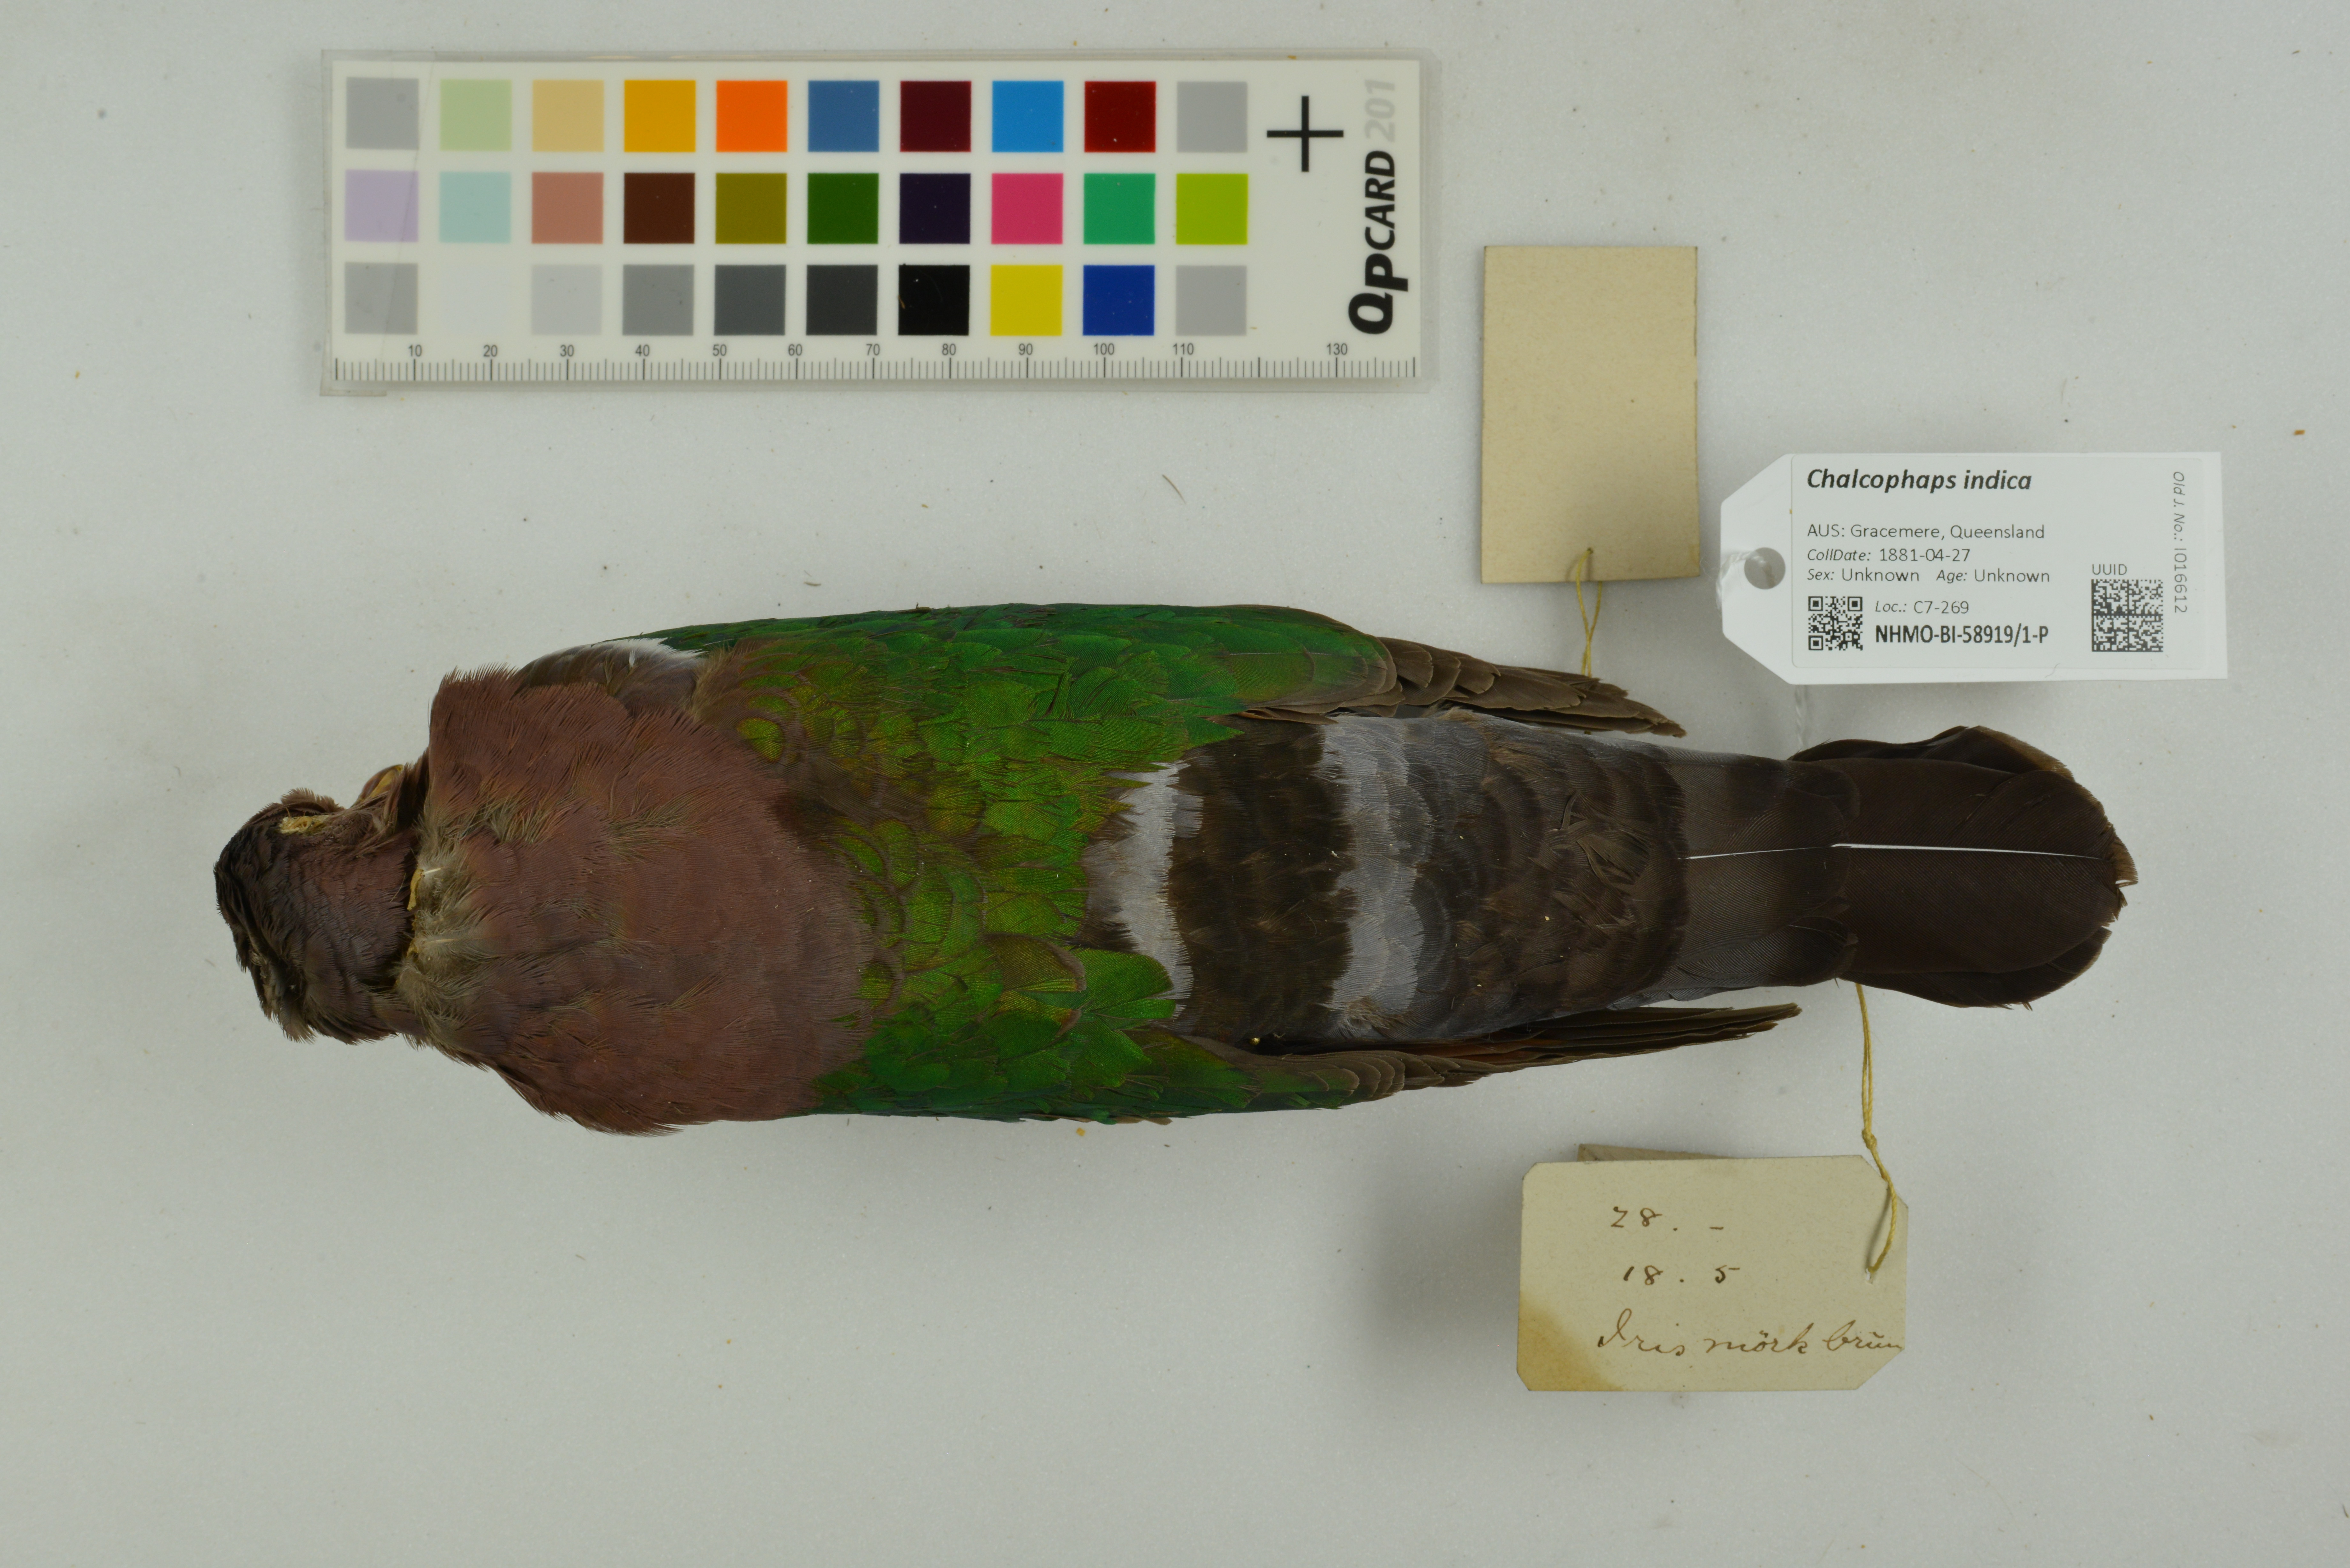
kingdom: Animalia
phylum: Chordata
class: Aves
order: Columbiformes
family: Columbidae
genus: Chalcophaps
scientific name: Chalcophaps indica
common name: Common emerald dove
